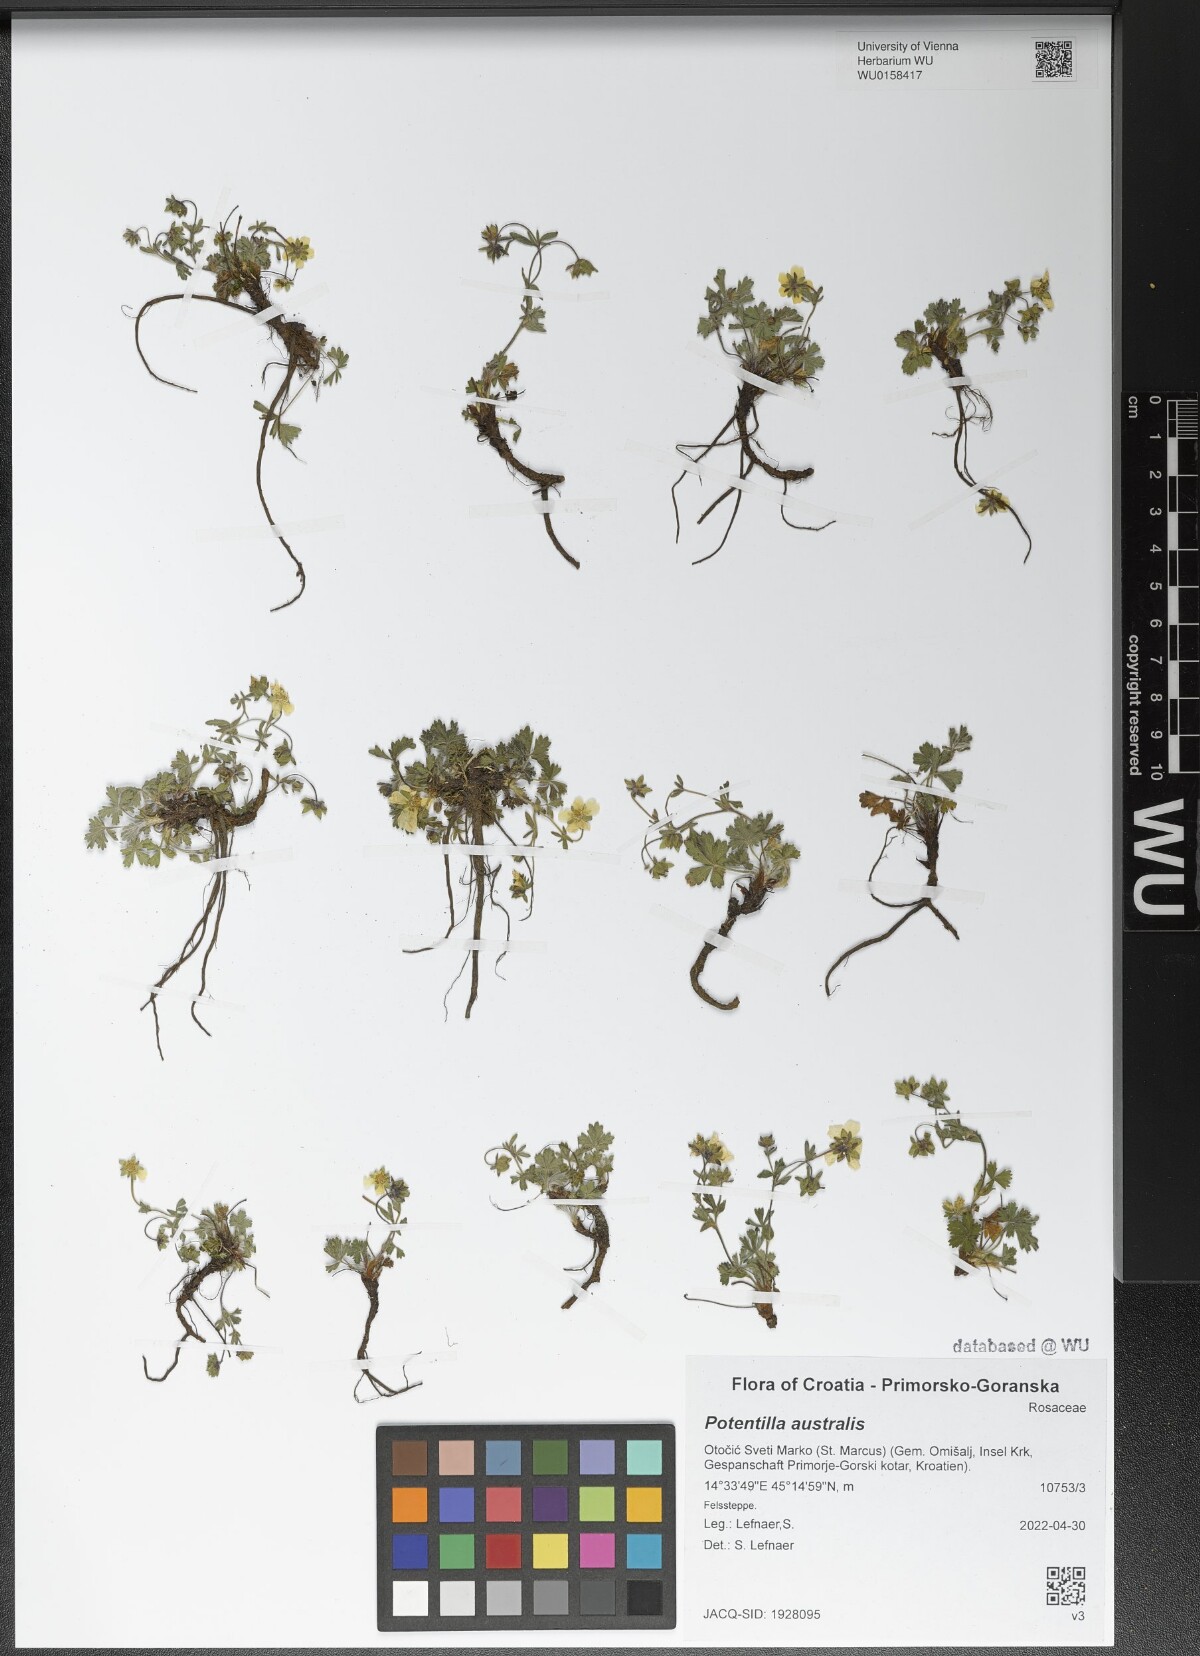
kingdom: Plantae
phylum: Tracheophyta
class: Magnoliopsida
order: Rosales
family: Rosaceae
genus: Potentilla
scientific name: Potentilla heptaphylla
